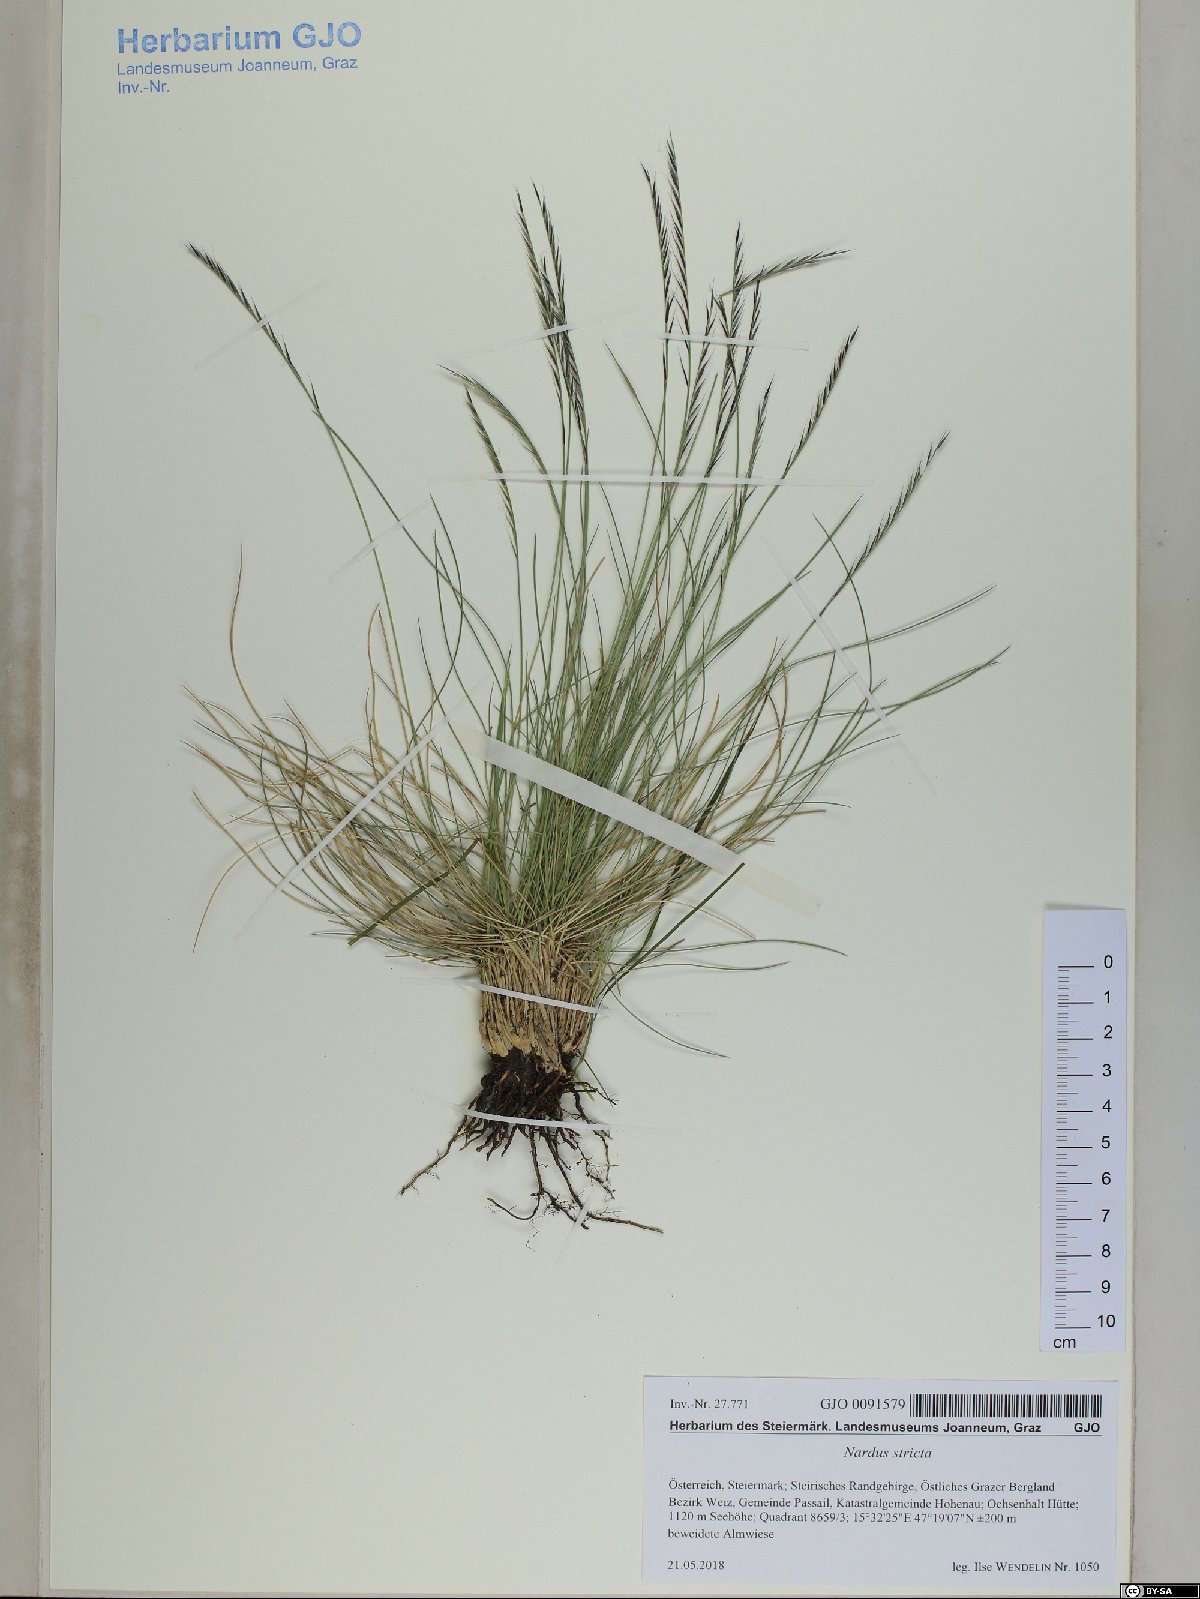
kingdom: Plantae
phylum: Tracheophyta
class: Liliopsida
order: Poales
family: Poaceae
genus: Nardus
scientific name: Nardus stricta
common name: Mat-grass
